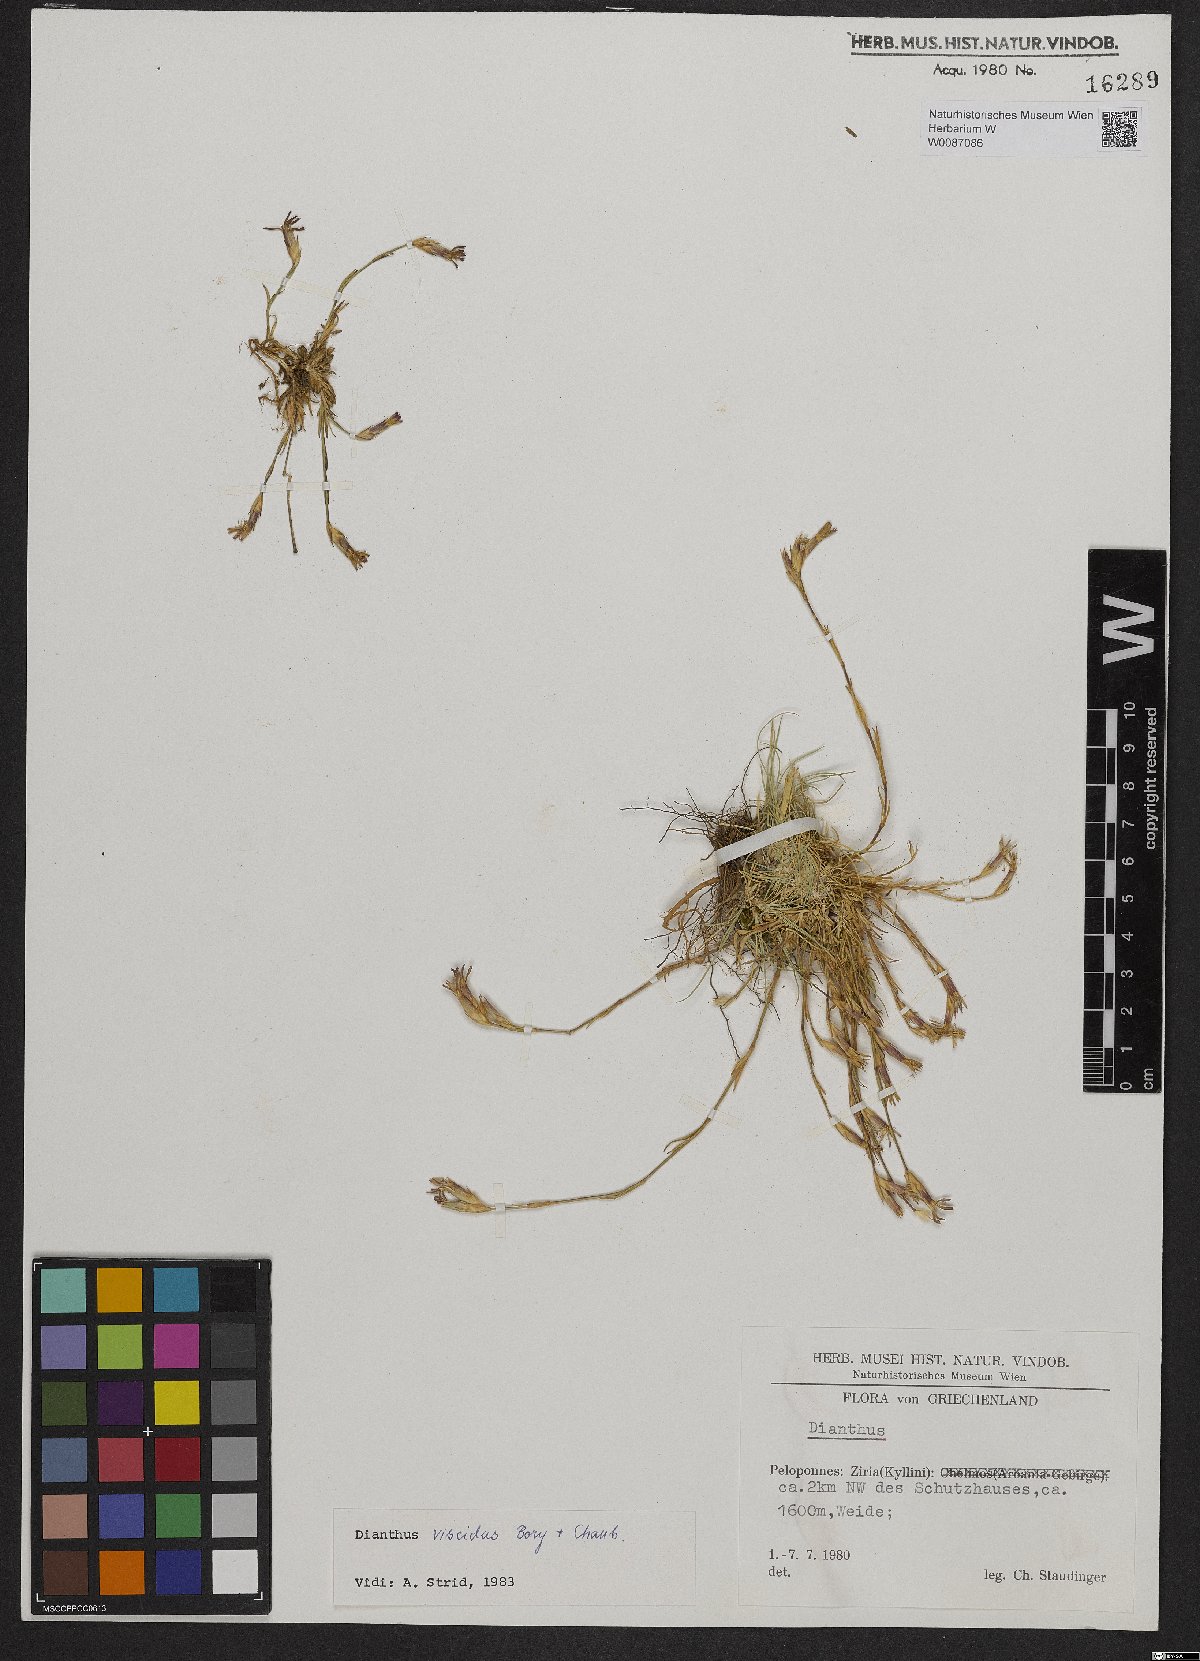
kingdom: Plantae
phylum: Tracheophyta
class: Magnoliopsida
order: Caryophyllales
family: Caryophyllaceae
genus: Dianthus
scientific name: Dianthus viscidus
